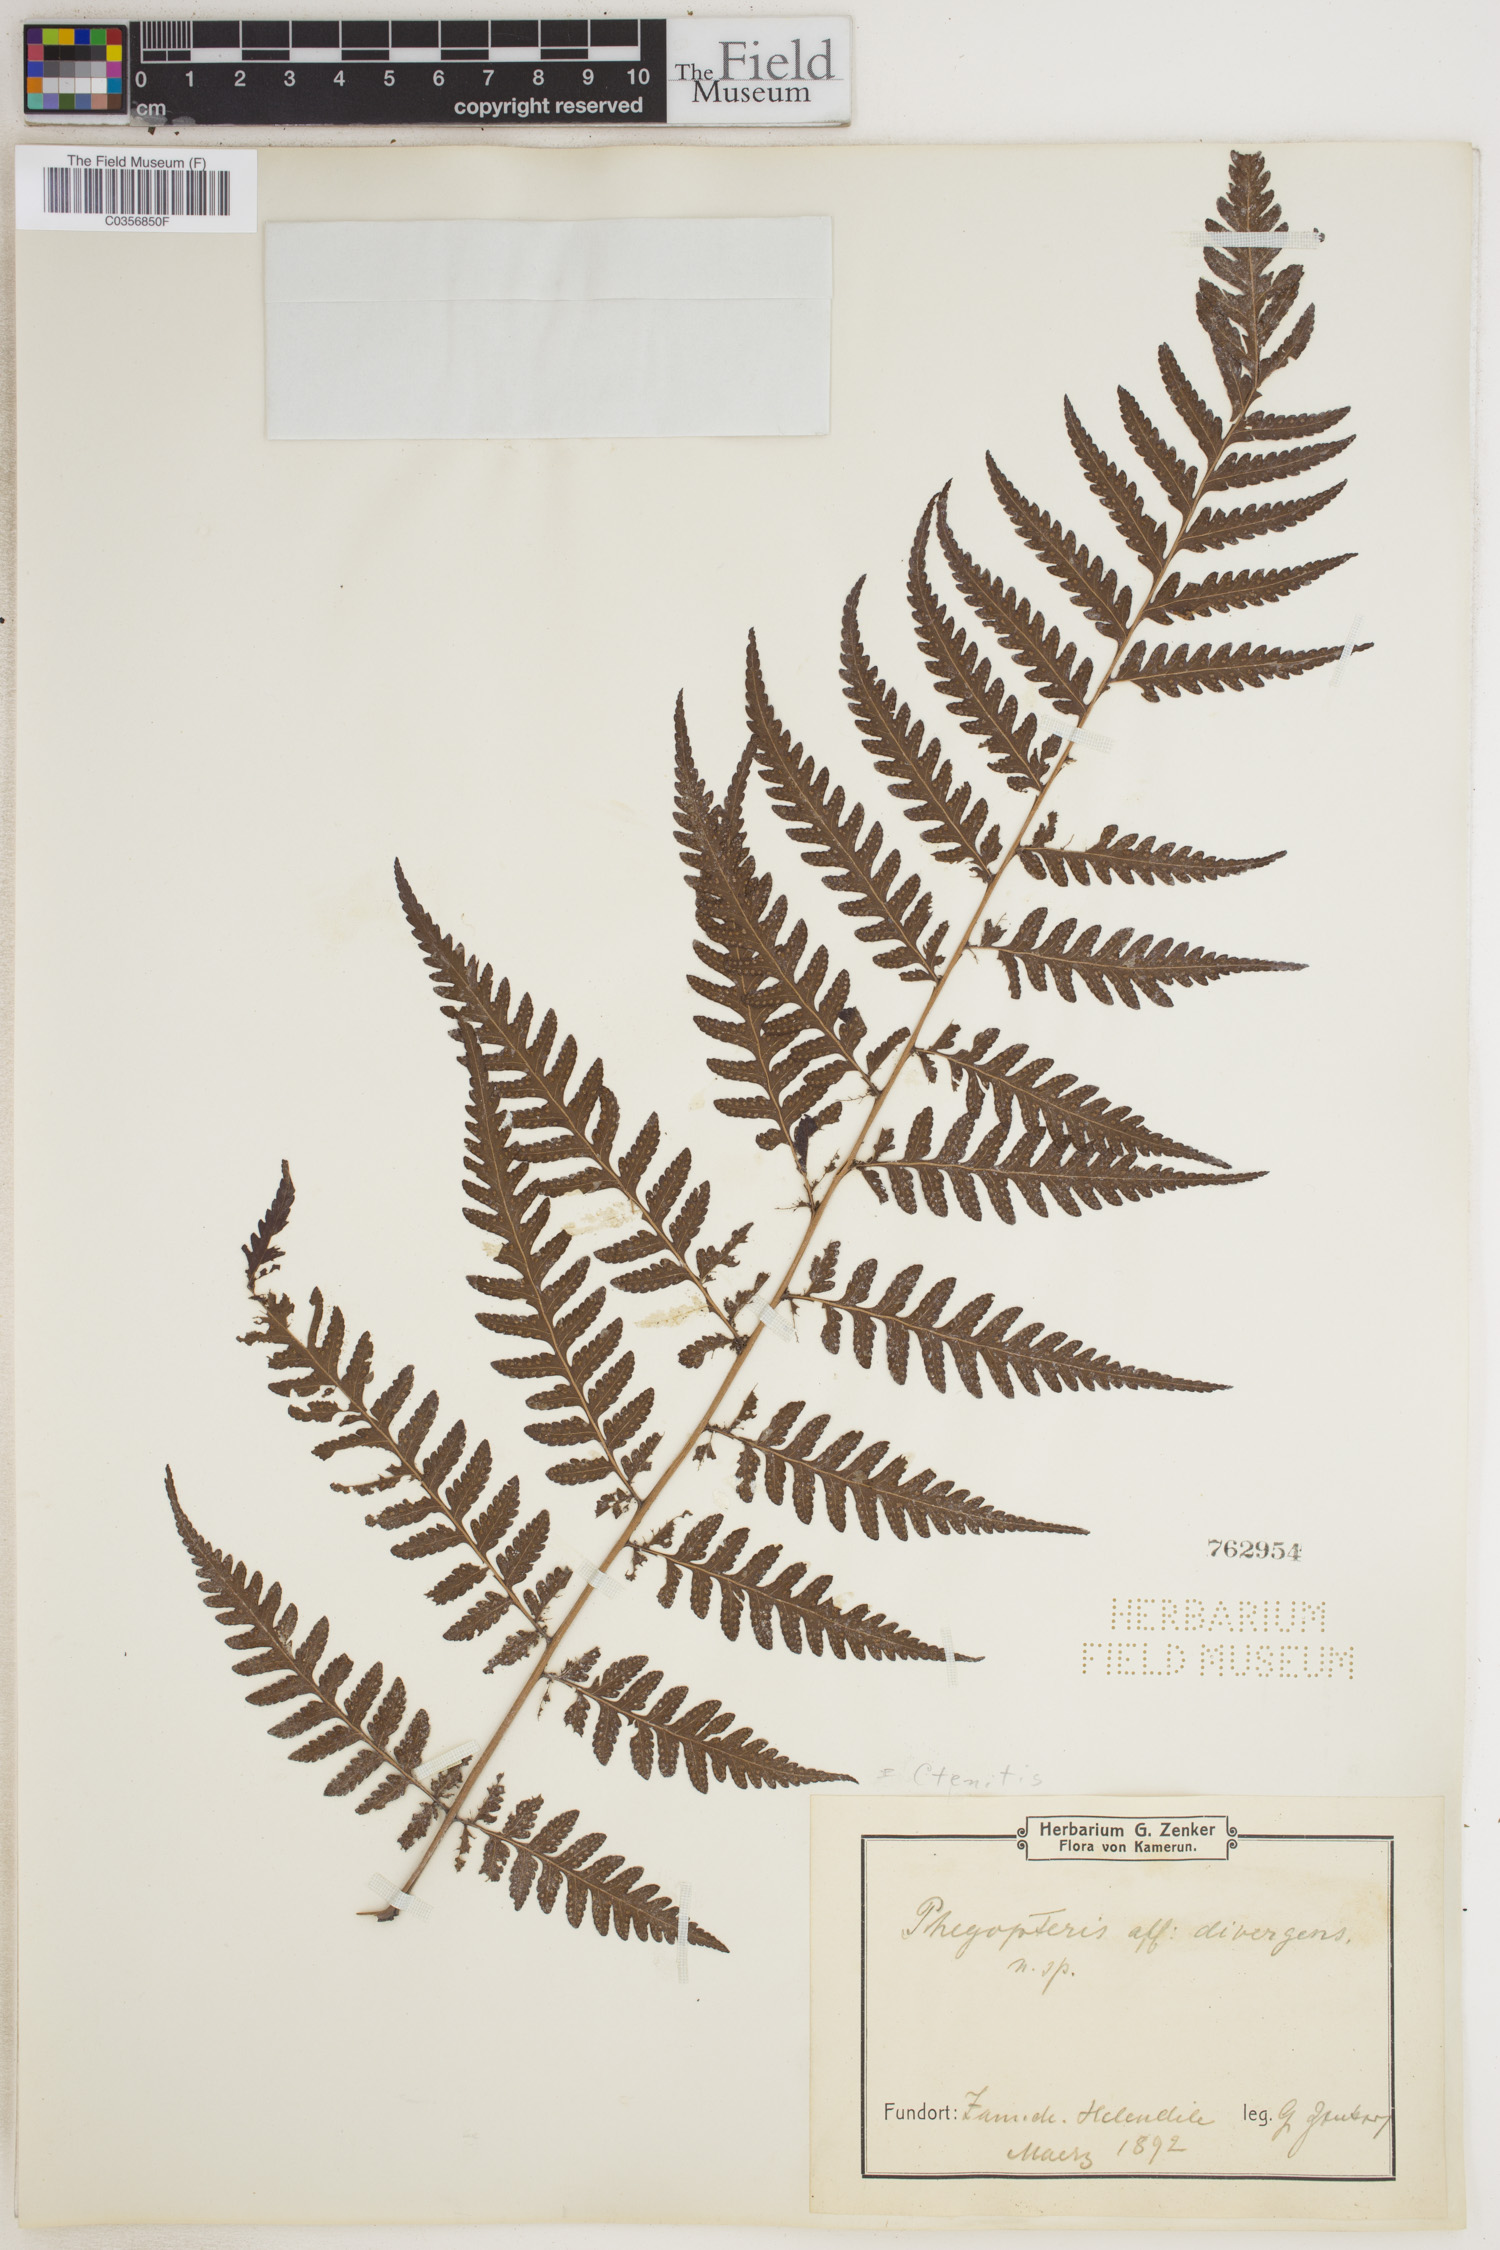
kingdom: Plantae
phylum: Tracheophyta
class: Polypodiopsida
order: Polypodiales
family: Dryopteridaceae
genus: Ctenitis
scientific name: Ctenitis
